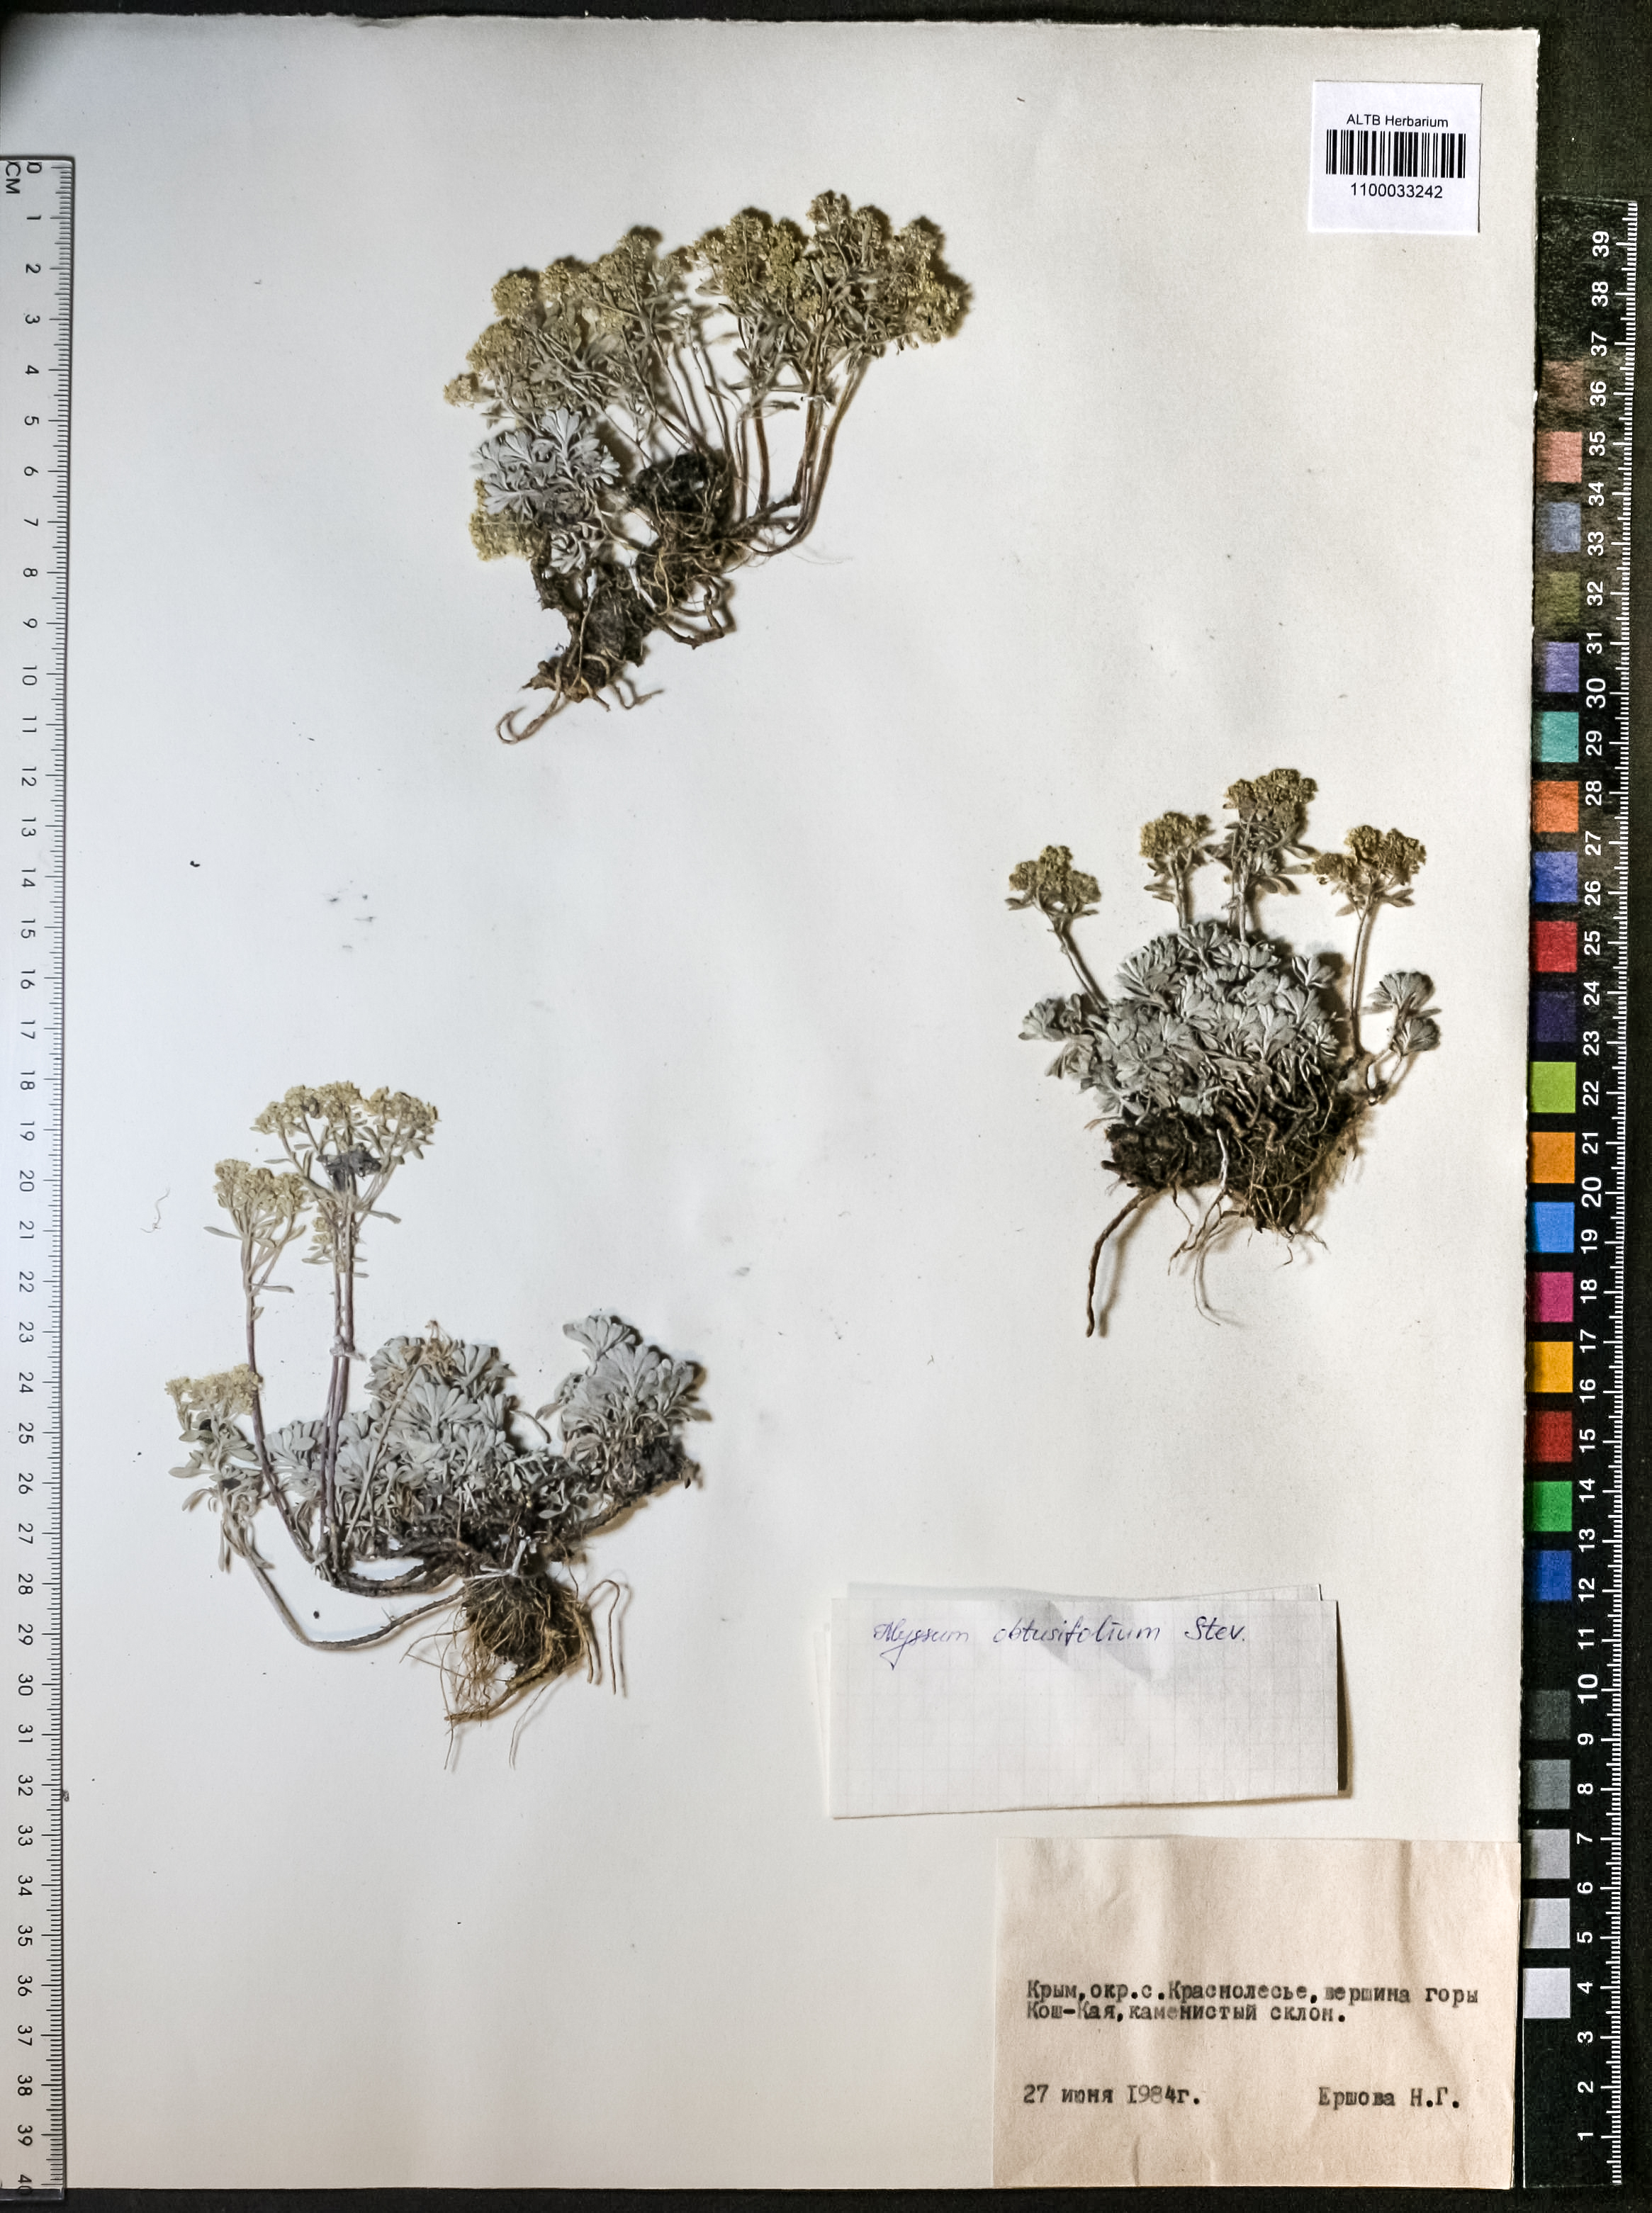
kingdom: Plantae
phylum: Tracheophyta
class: Magnoliopsida
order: Brassicales
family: Brassicaceae
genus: Odontarrhena
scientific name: Odontarrhena obtusifolia
